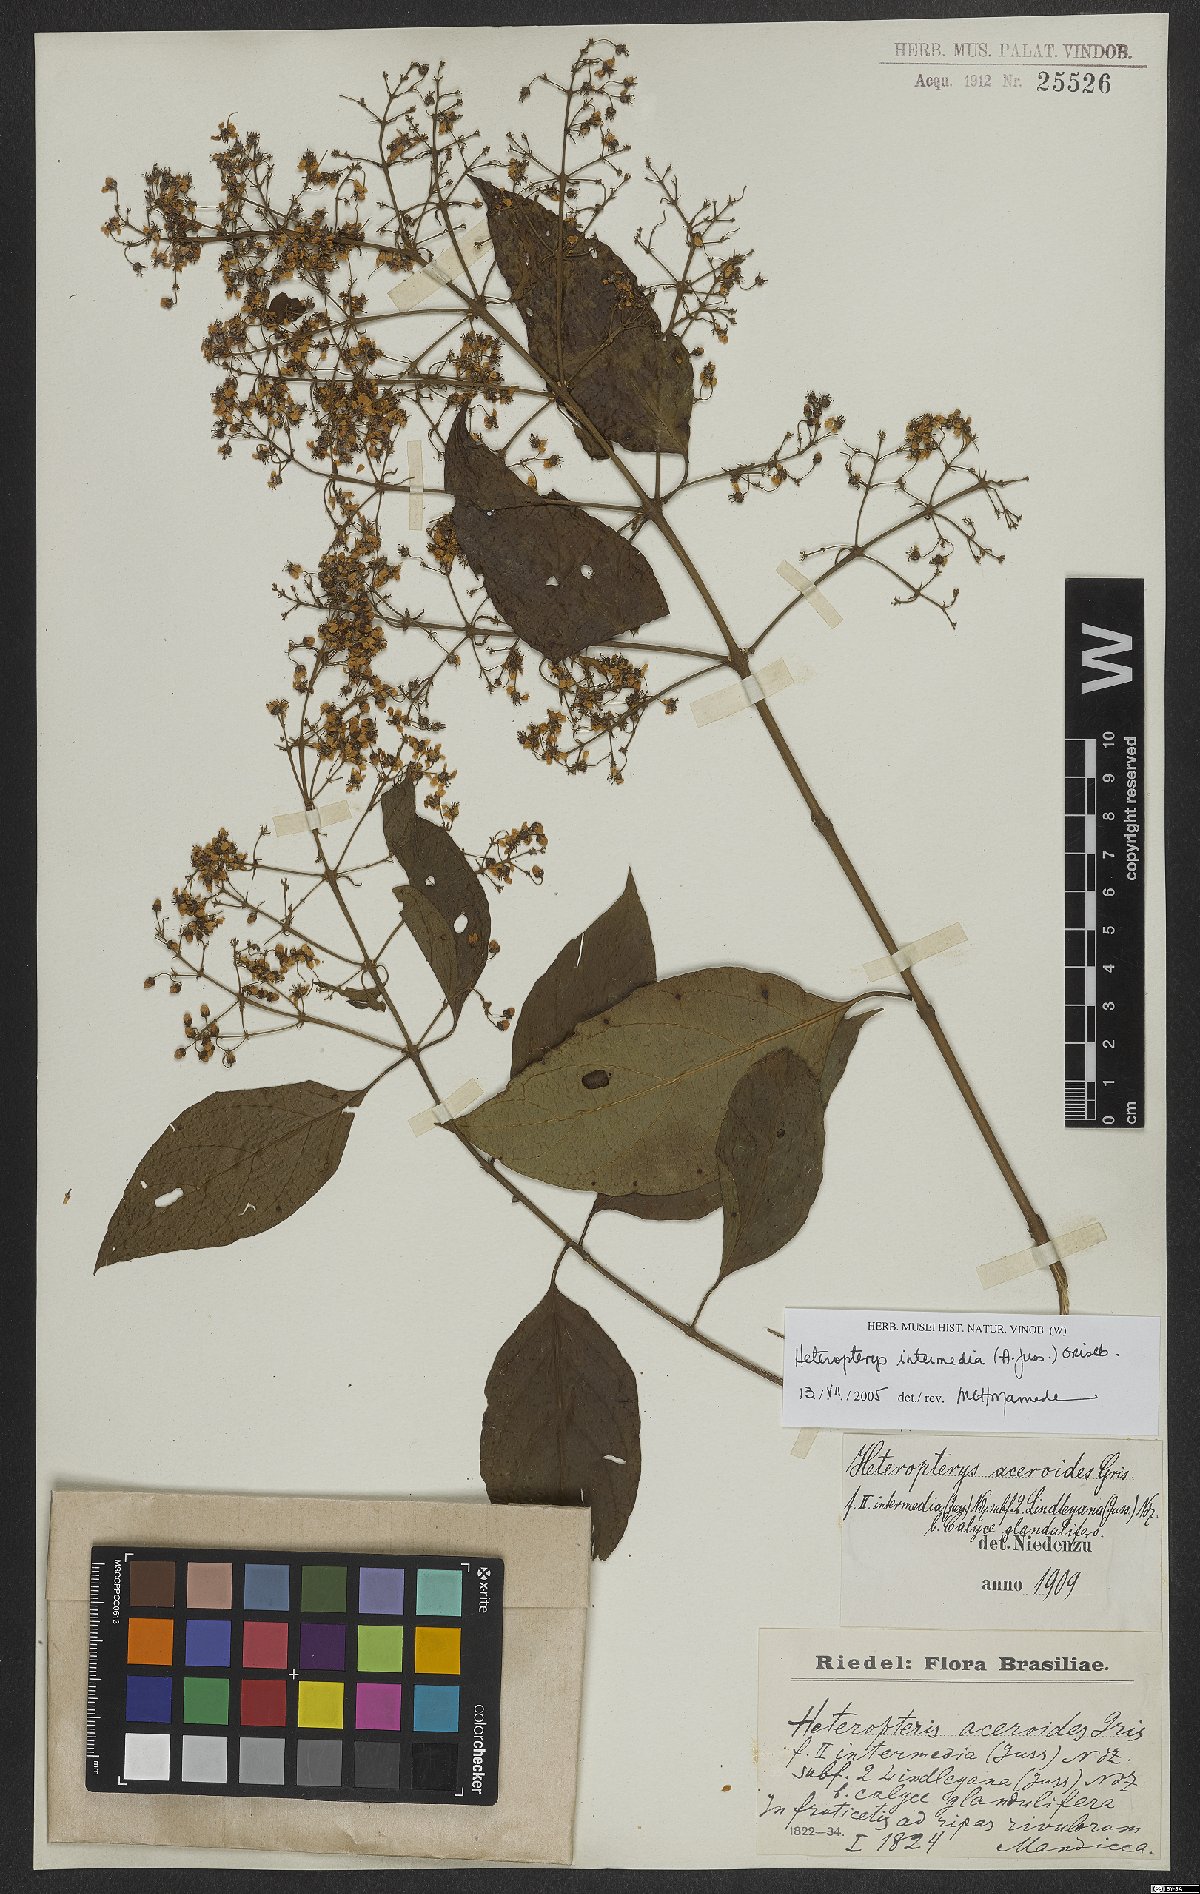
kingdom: Plantae
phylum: Tracheophyta
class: Magnoliopsida
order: Malpighiales
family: Malpighiaceae
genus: Heteropterys
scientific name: Heteropterys intermedia
